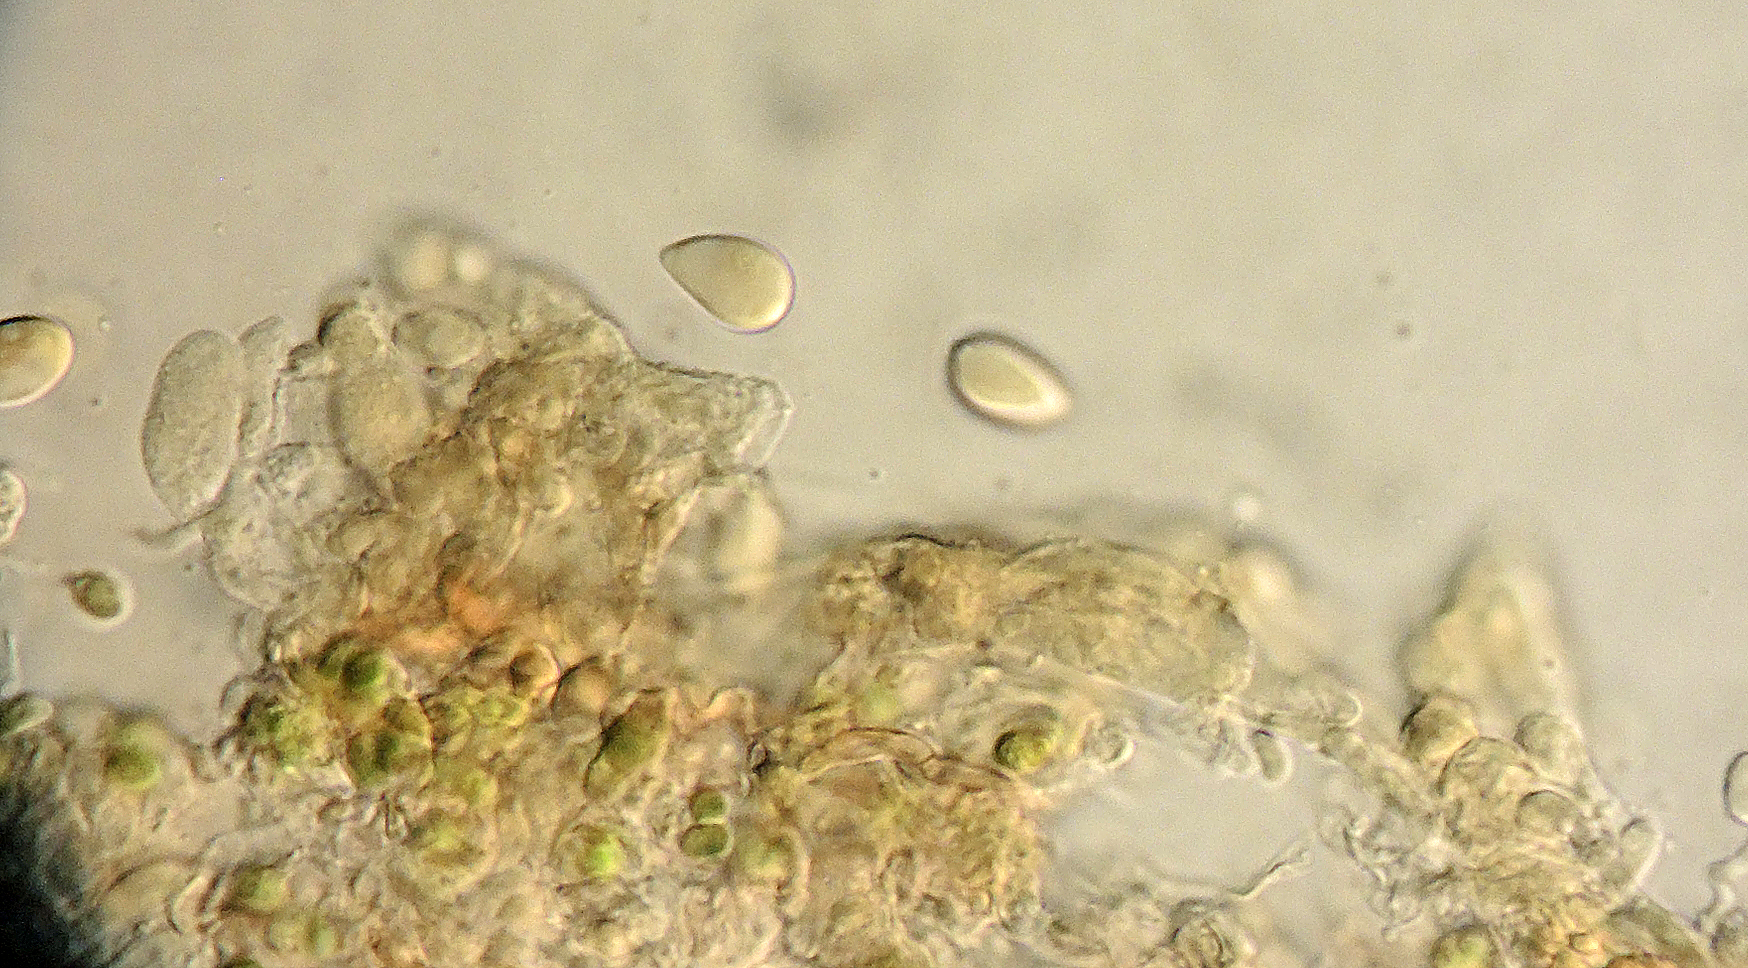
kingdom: Fungi
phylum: Basidiomycota
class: Agaricomycetes
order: Trechisporales
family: Hydnodontaceae
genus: Luellia
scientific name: Luellia recondita
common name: almindelig kanelhinde
